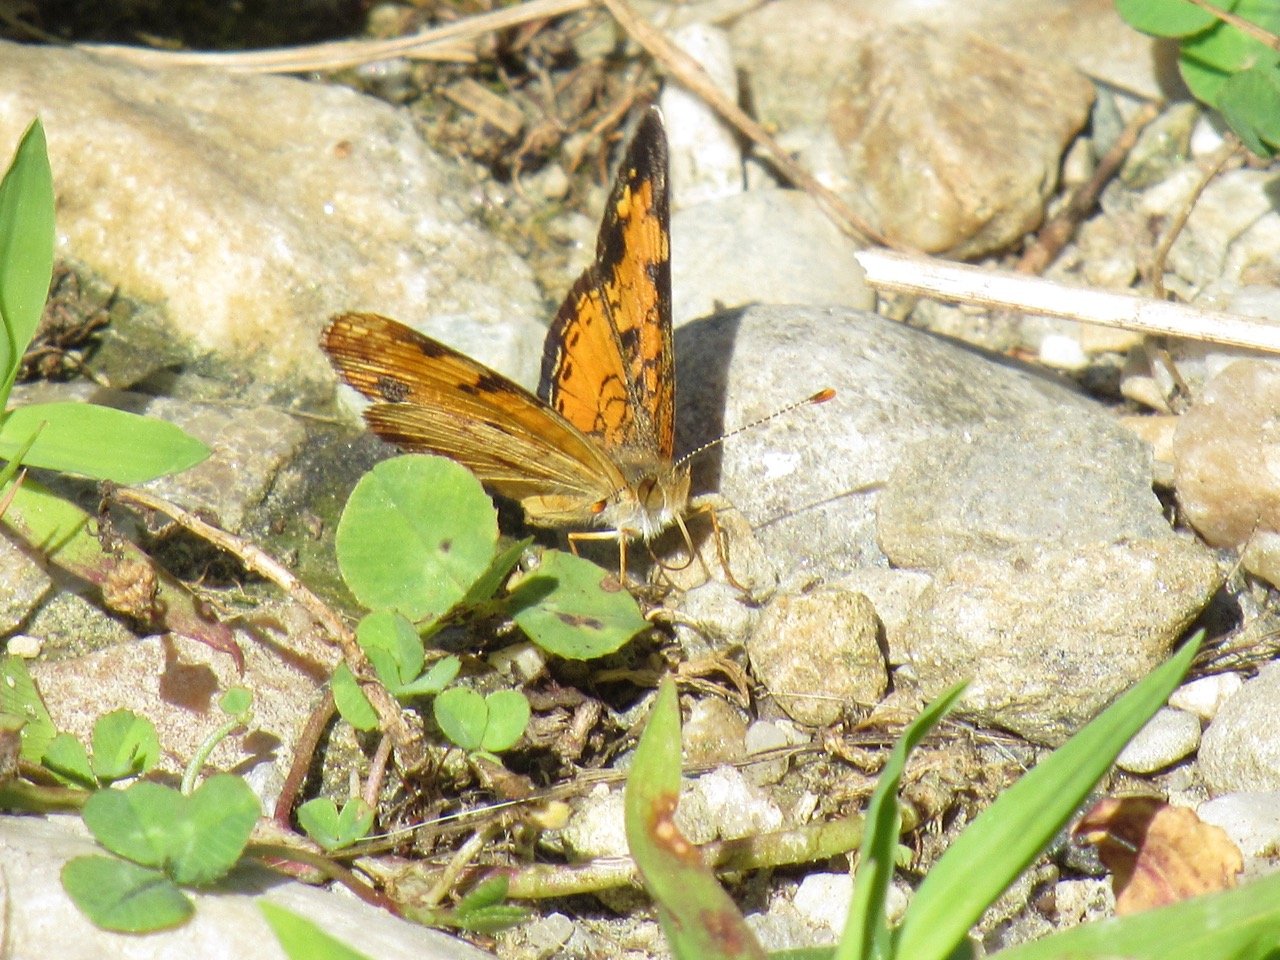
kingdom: Animalia
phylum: Arthropoda
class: Insecta
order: Lepidoptera
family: Nymphalidae
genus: Phyciodes
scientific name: Phyciodes tharos
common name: Pearl Crescent
